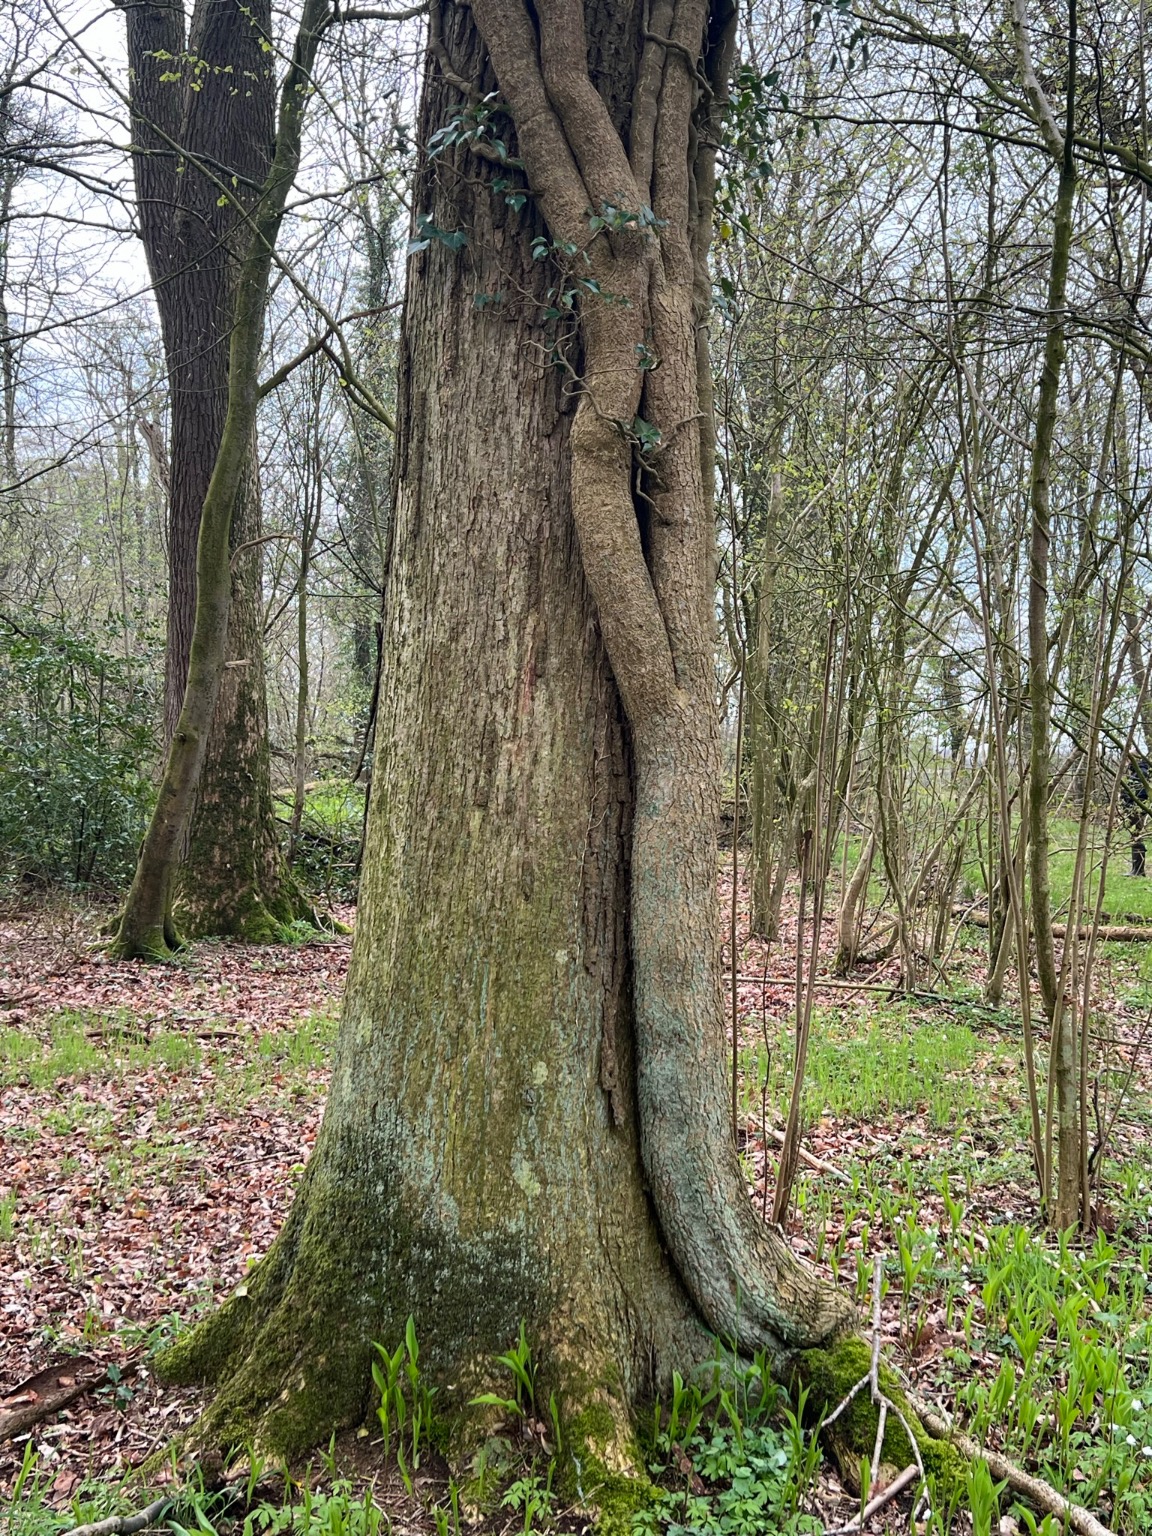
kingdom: Plantae
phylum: Tracheophyta
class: Magnoliopsida
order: Apiales
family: Araliaceae
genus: Hedera
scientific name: Hedera helix
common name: Vedbend
